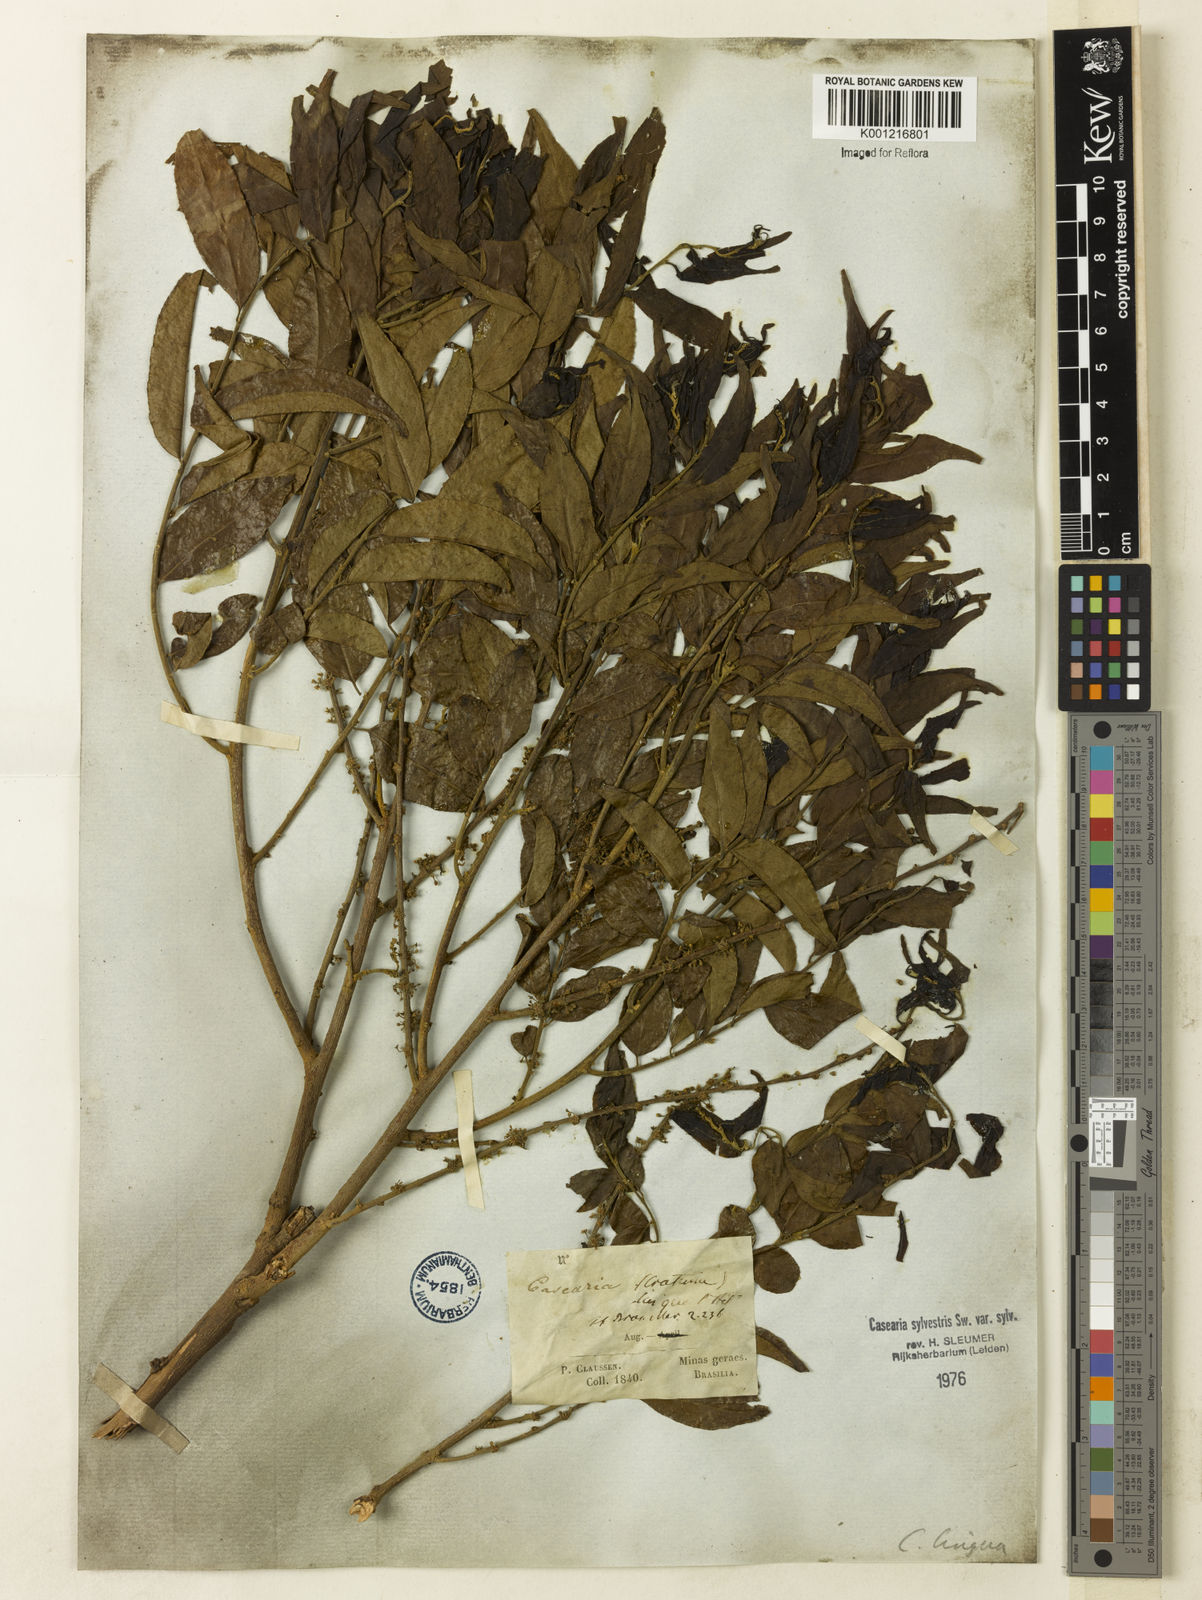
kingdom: Plantae
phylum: Tracheophyta
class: Magnoliopsida
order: Malpighiales
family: Salicaceae
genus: Casearia
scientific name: Casearia sylvestris
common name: Wild sage
